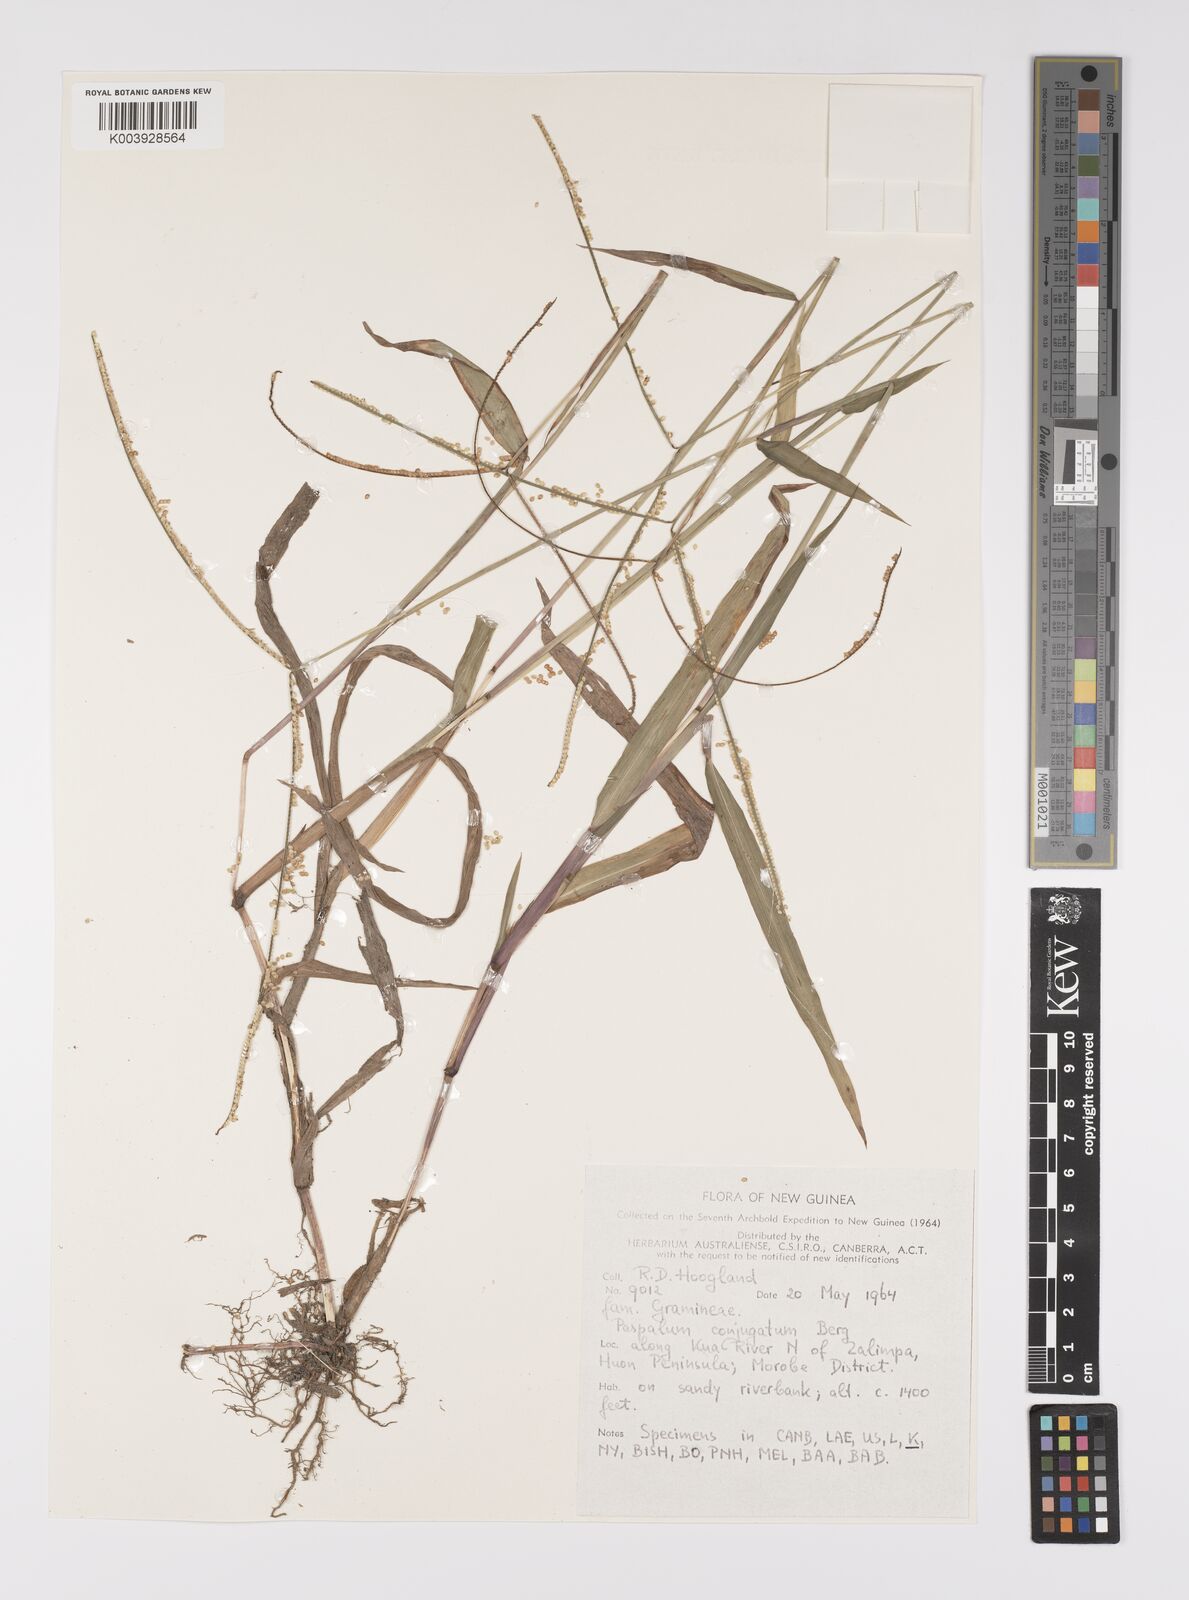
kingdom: Plantae
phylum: Tracheophyta
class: Liliopsida
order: Poales
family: Poaceae
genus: Paspalum
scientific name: Paspalum conjugatum
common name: Hilograss
